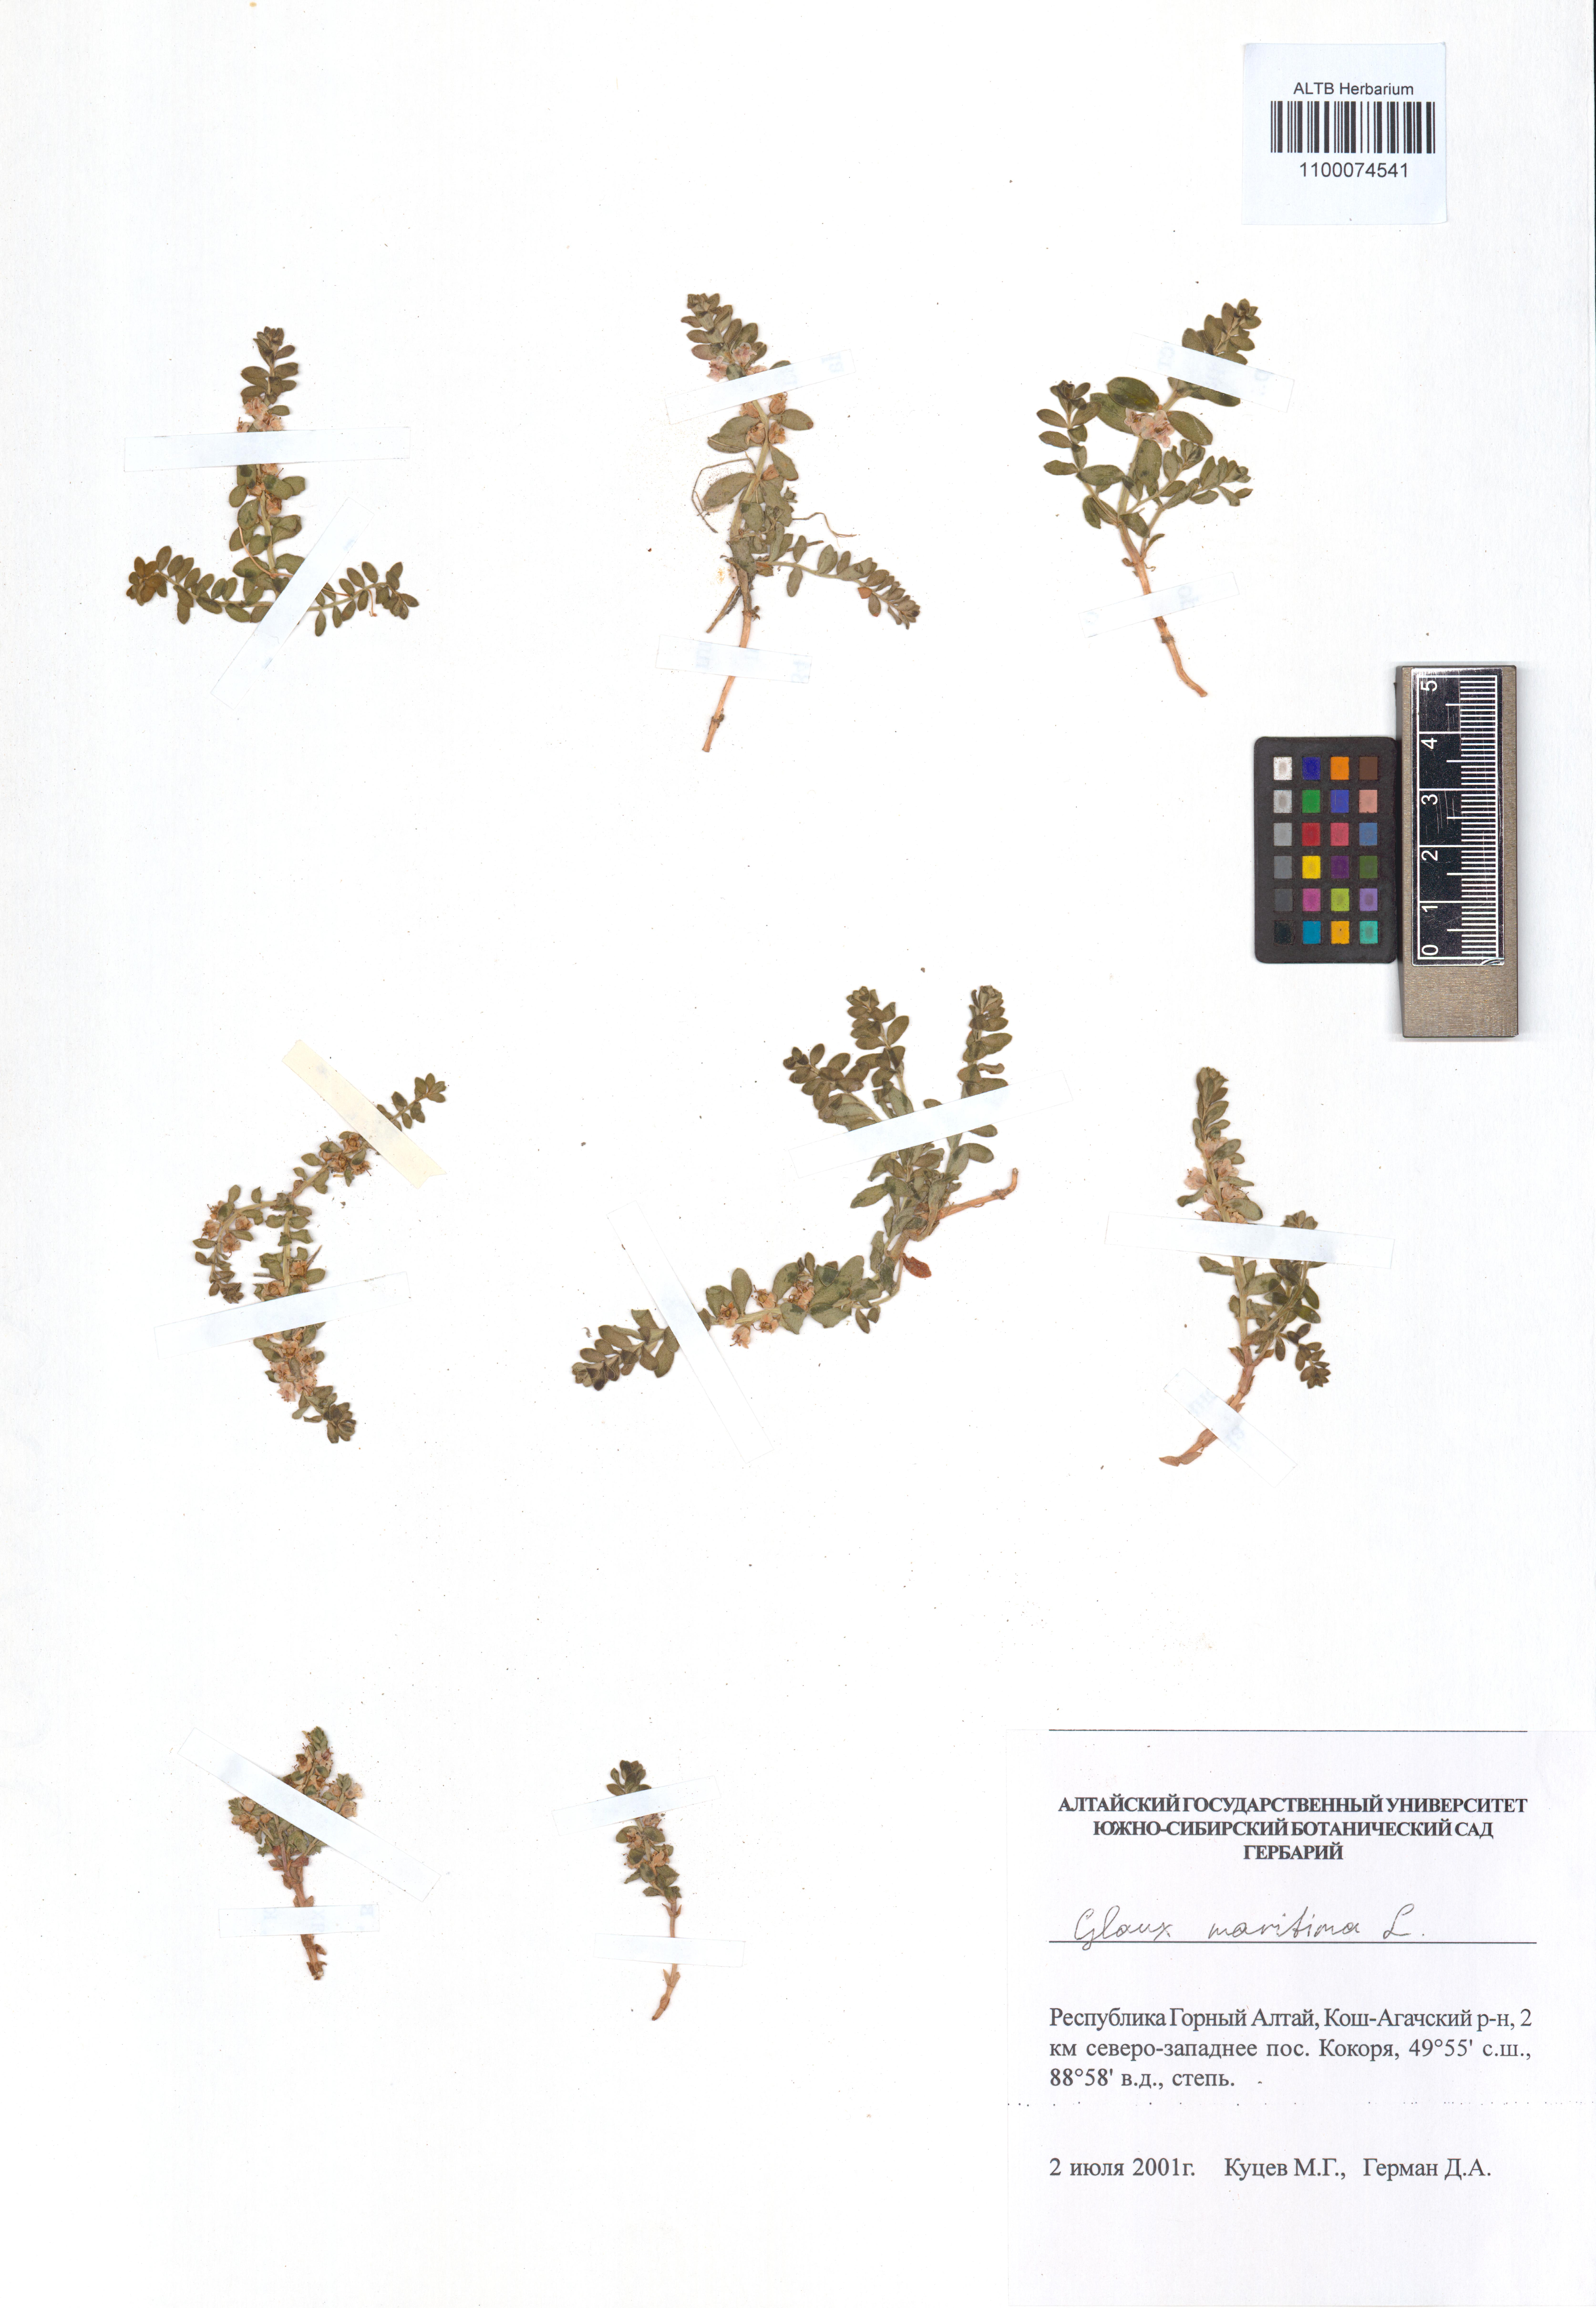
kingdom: Plantae
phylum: Tracheophyta
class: Magnoliopsida
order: Ericales
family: Primulaceae
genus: Lysimachia
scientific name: Lysimachia maritima
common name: Sea milkwort
